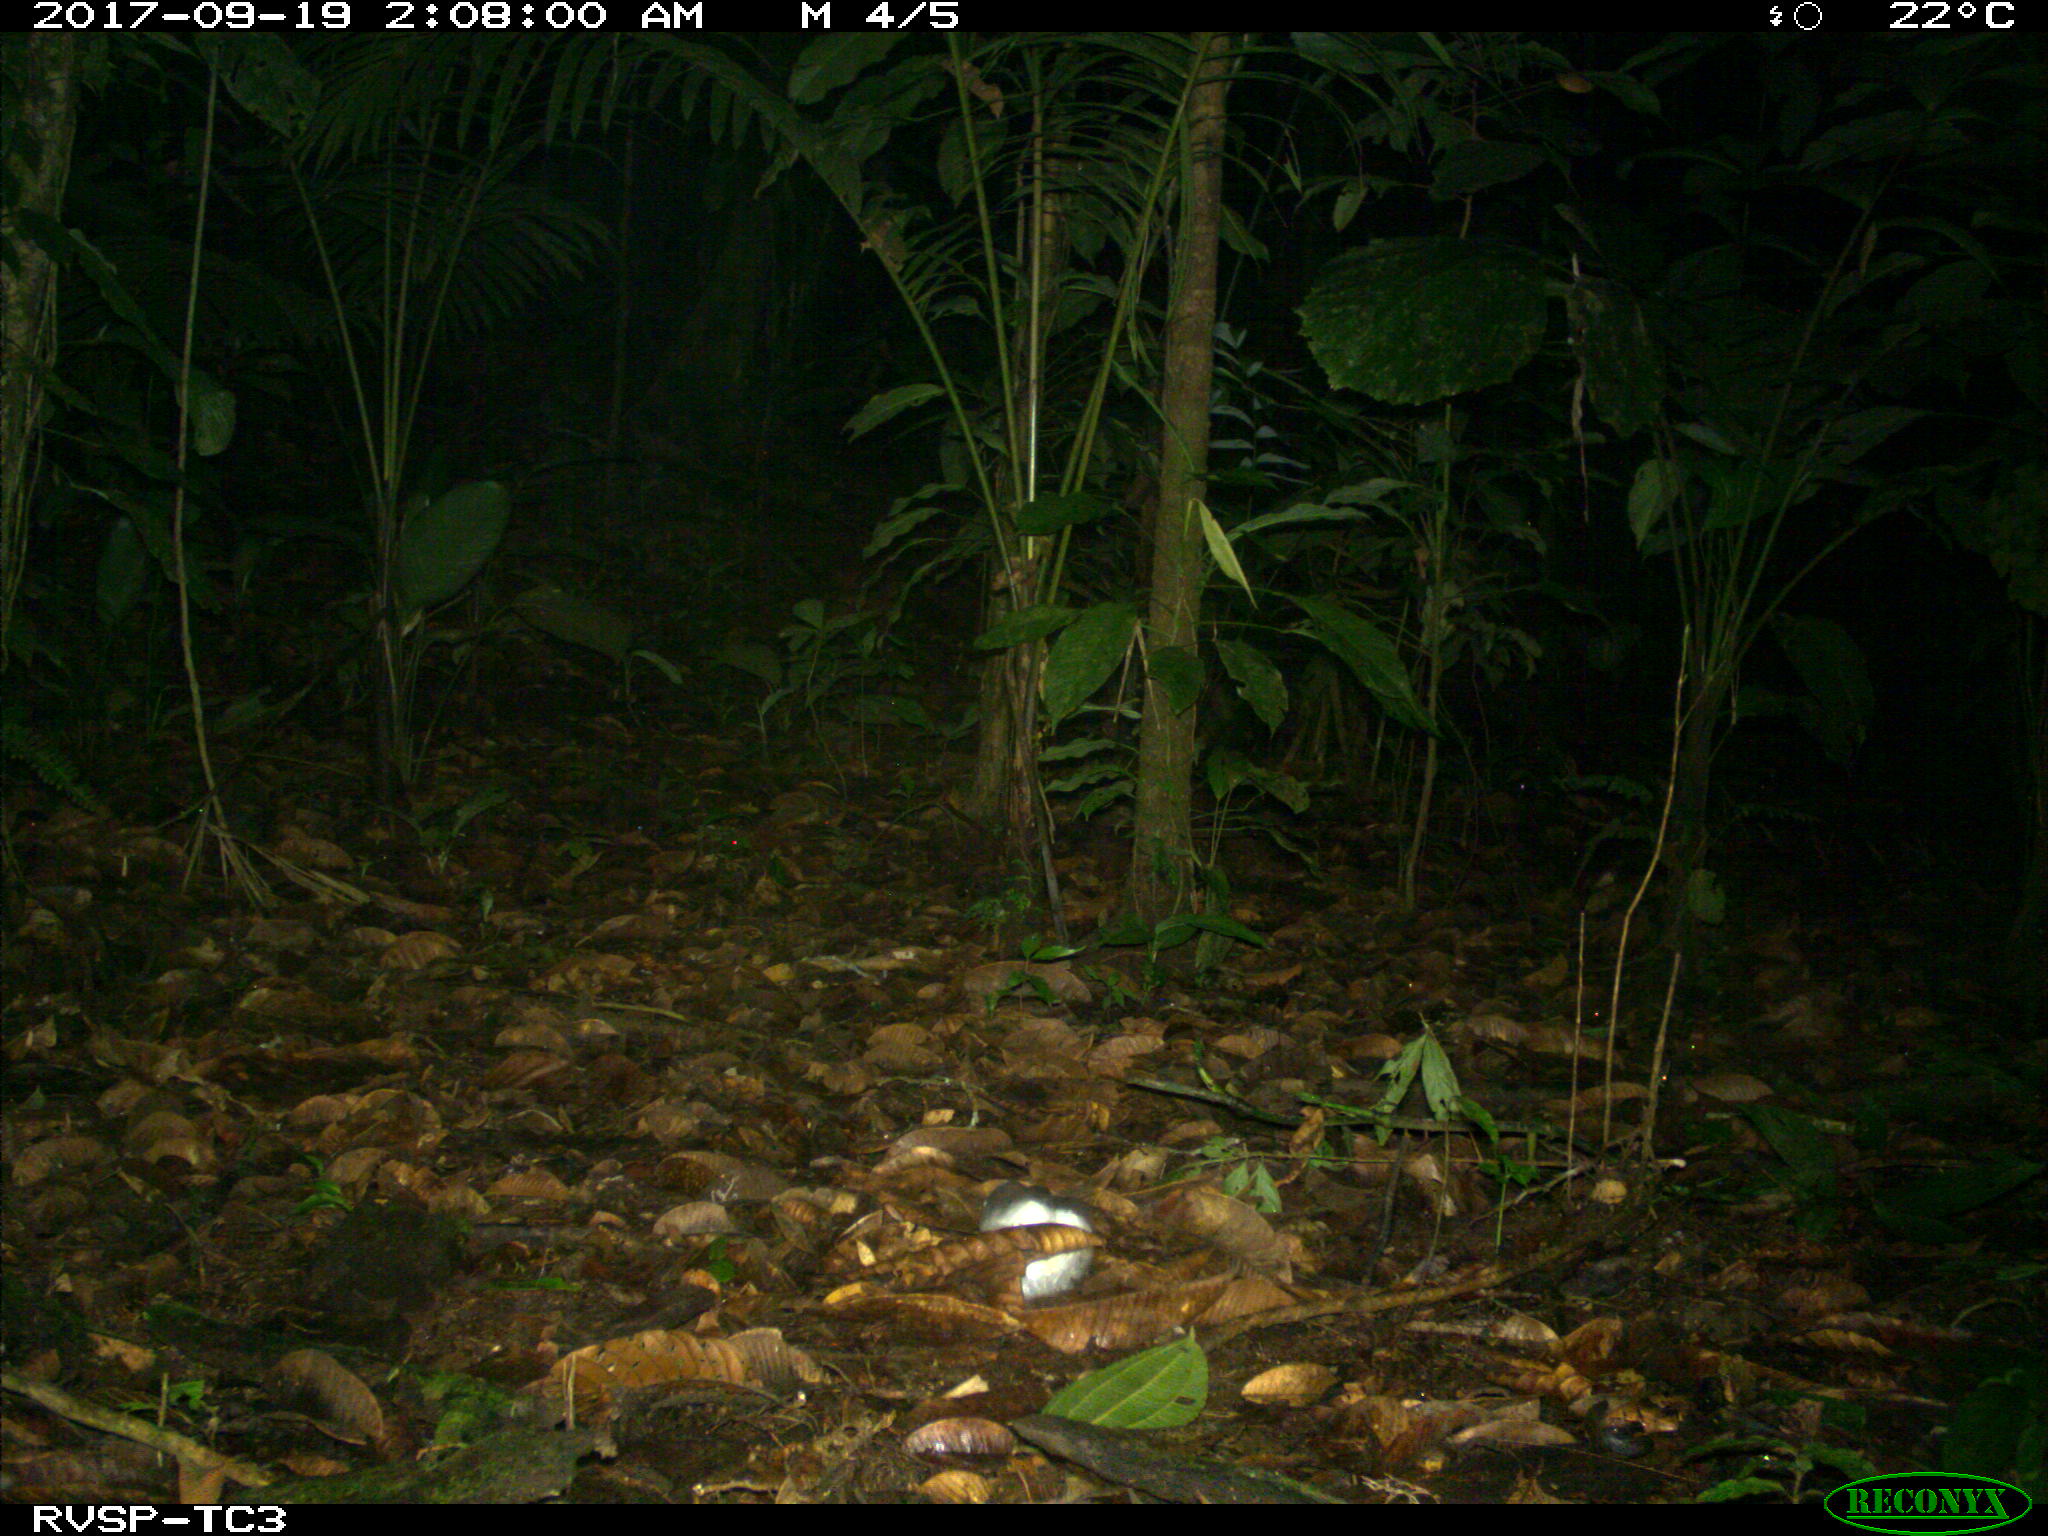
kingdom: Animalia
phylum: Chordata
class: Mammalia
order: Carnivora
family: Felidae
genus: Leopardus
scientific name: Leopardus pardalis
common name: Ocelot
